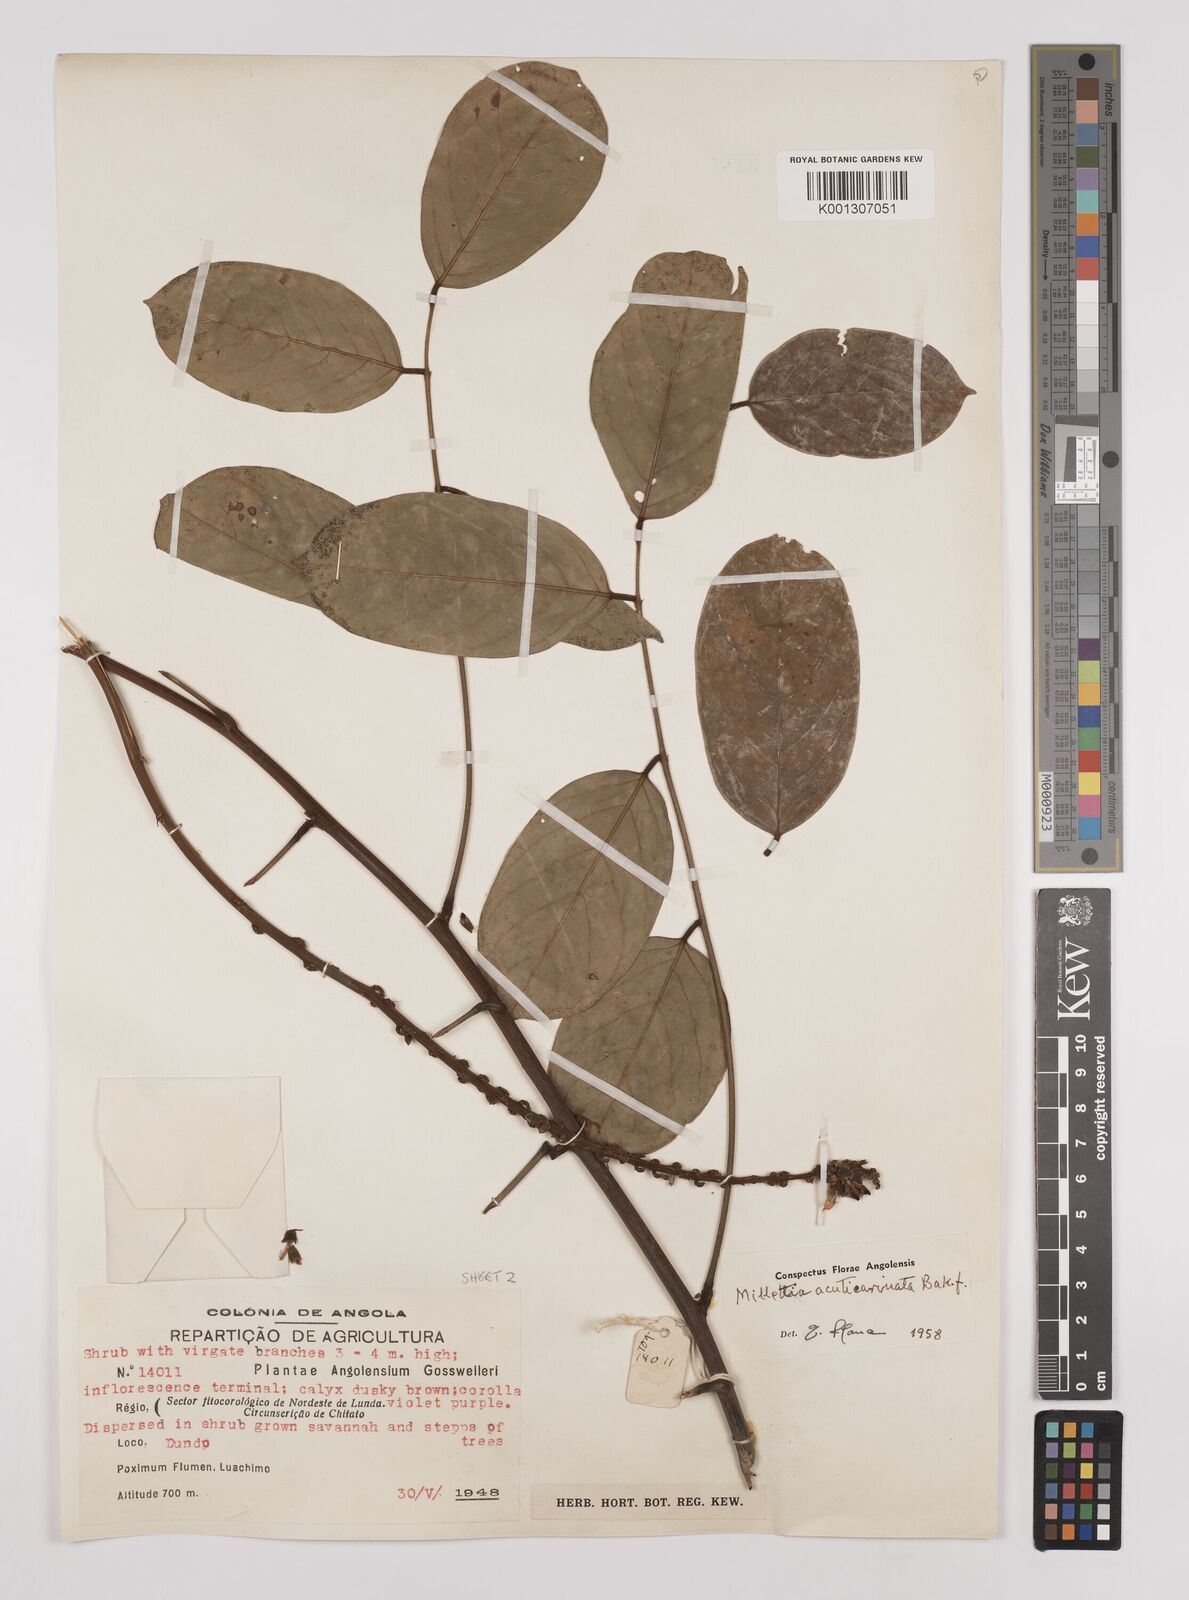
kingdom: Plantae
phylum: Tracheophyta
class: Magnoliopsida
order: Fabales
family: Fabaceae
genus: Millettia
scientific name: Millettia
